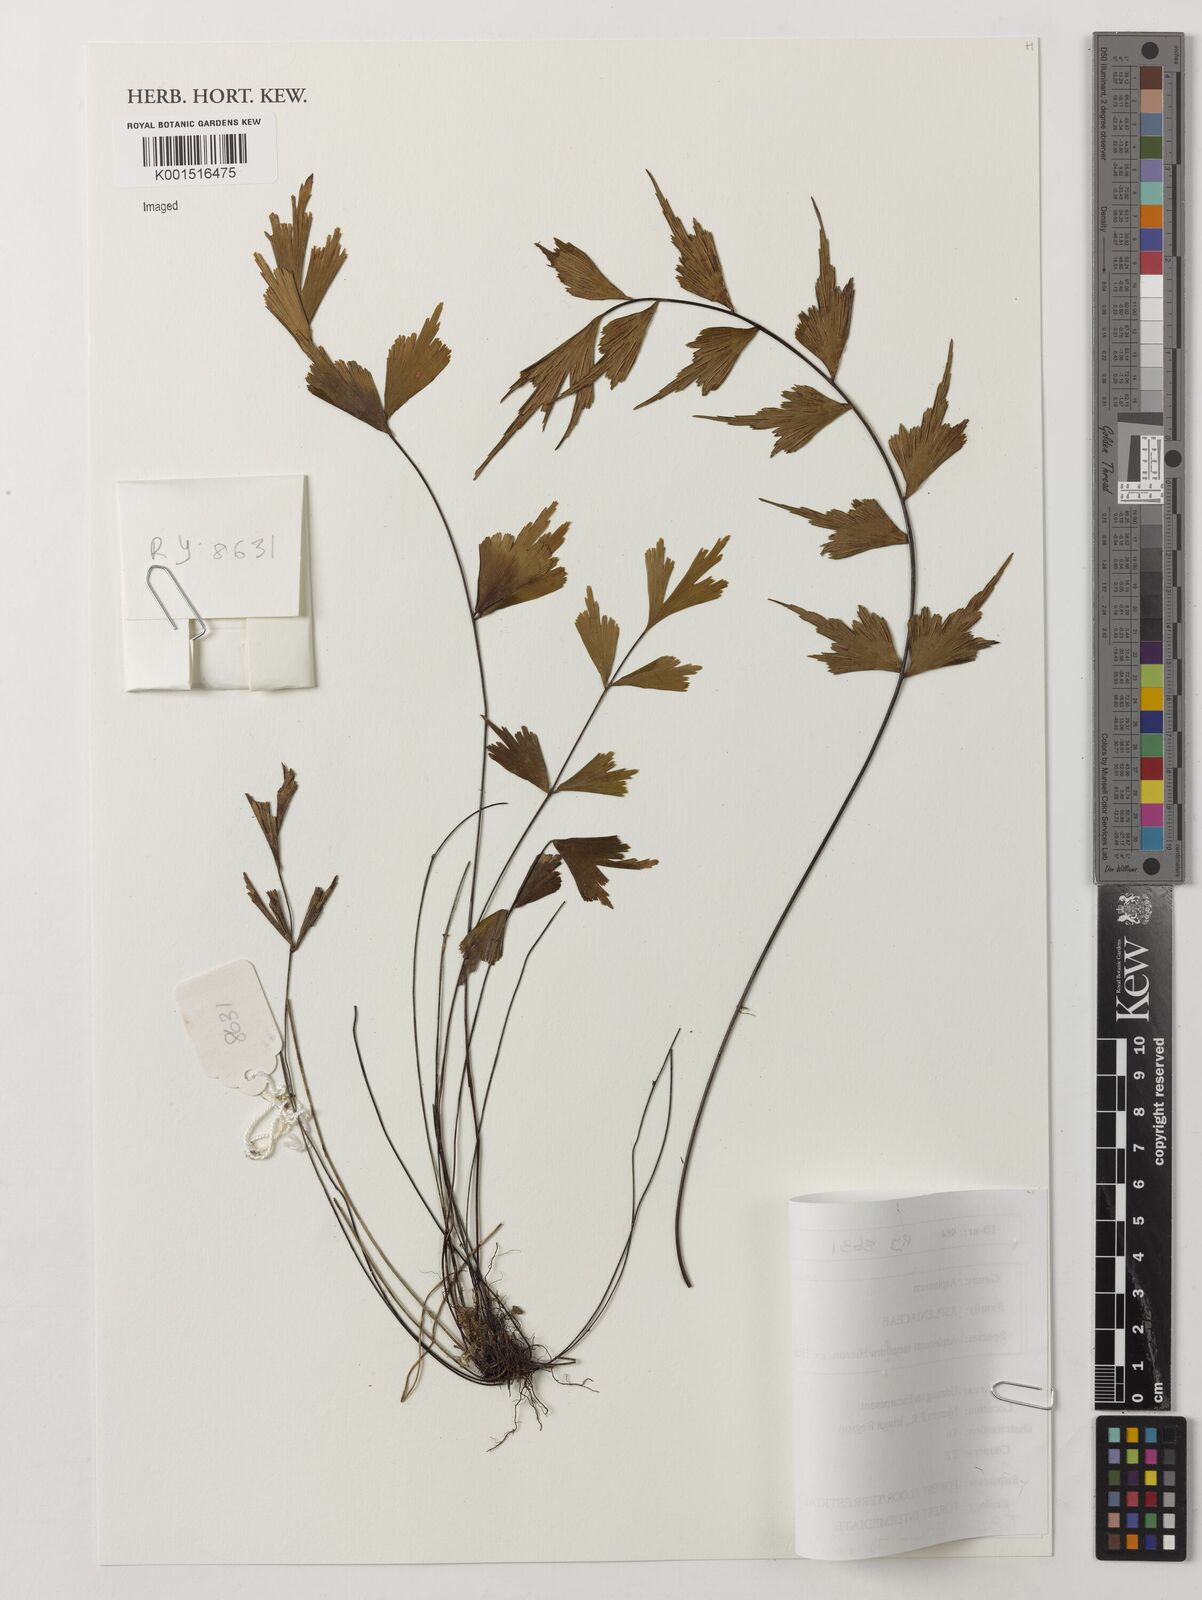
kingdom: Plantae
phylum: Tracheophyta
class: Polypodiopsida
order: Polypodiales
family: Aspleniaceae
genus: Asplenium
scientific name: Asplenium megalura
